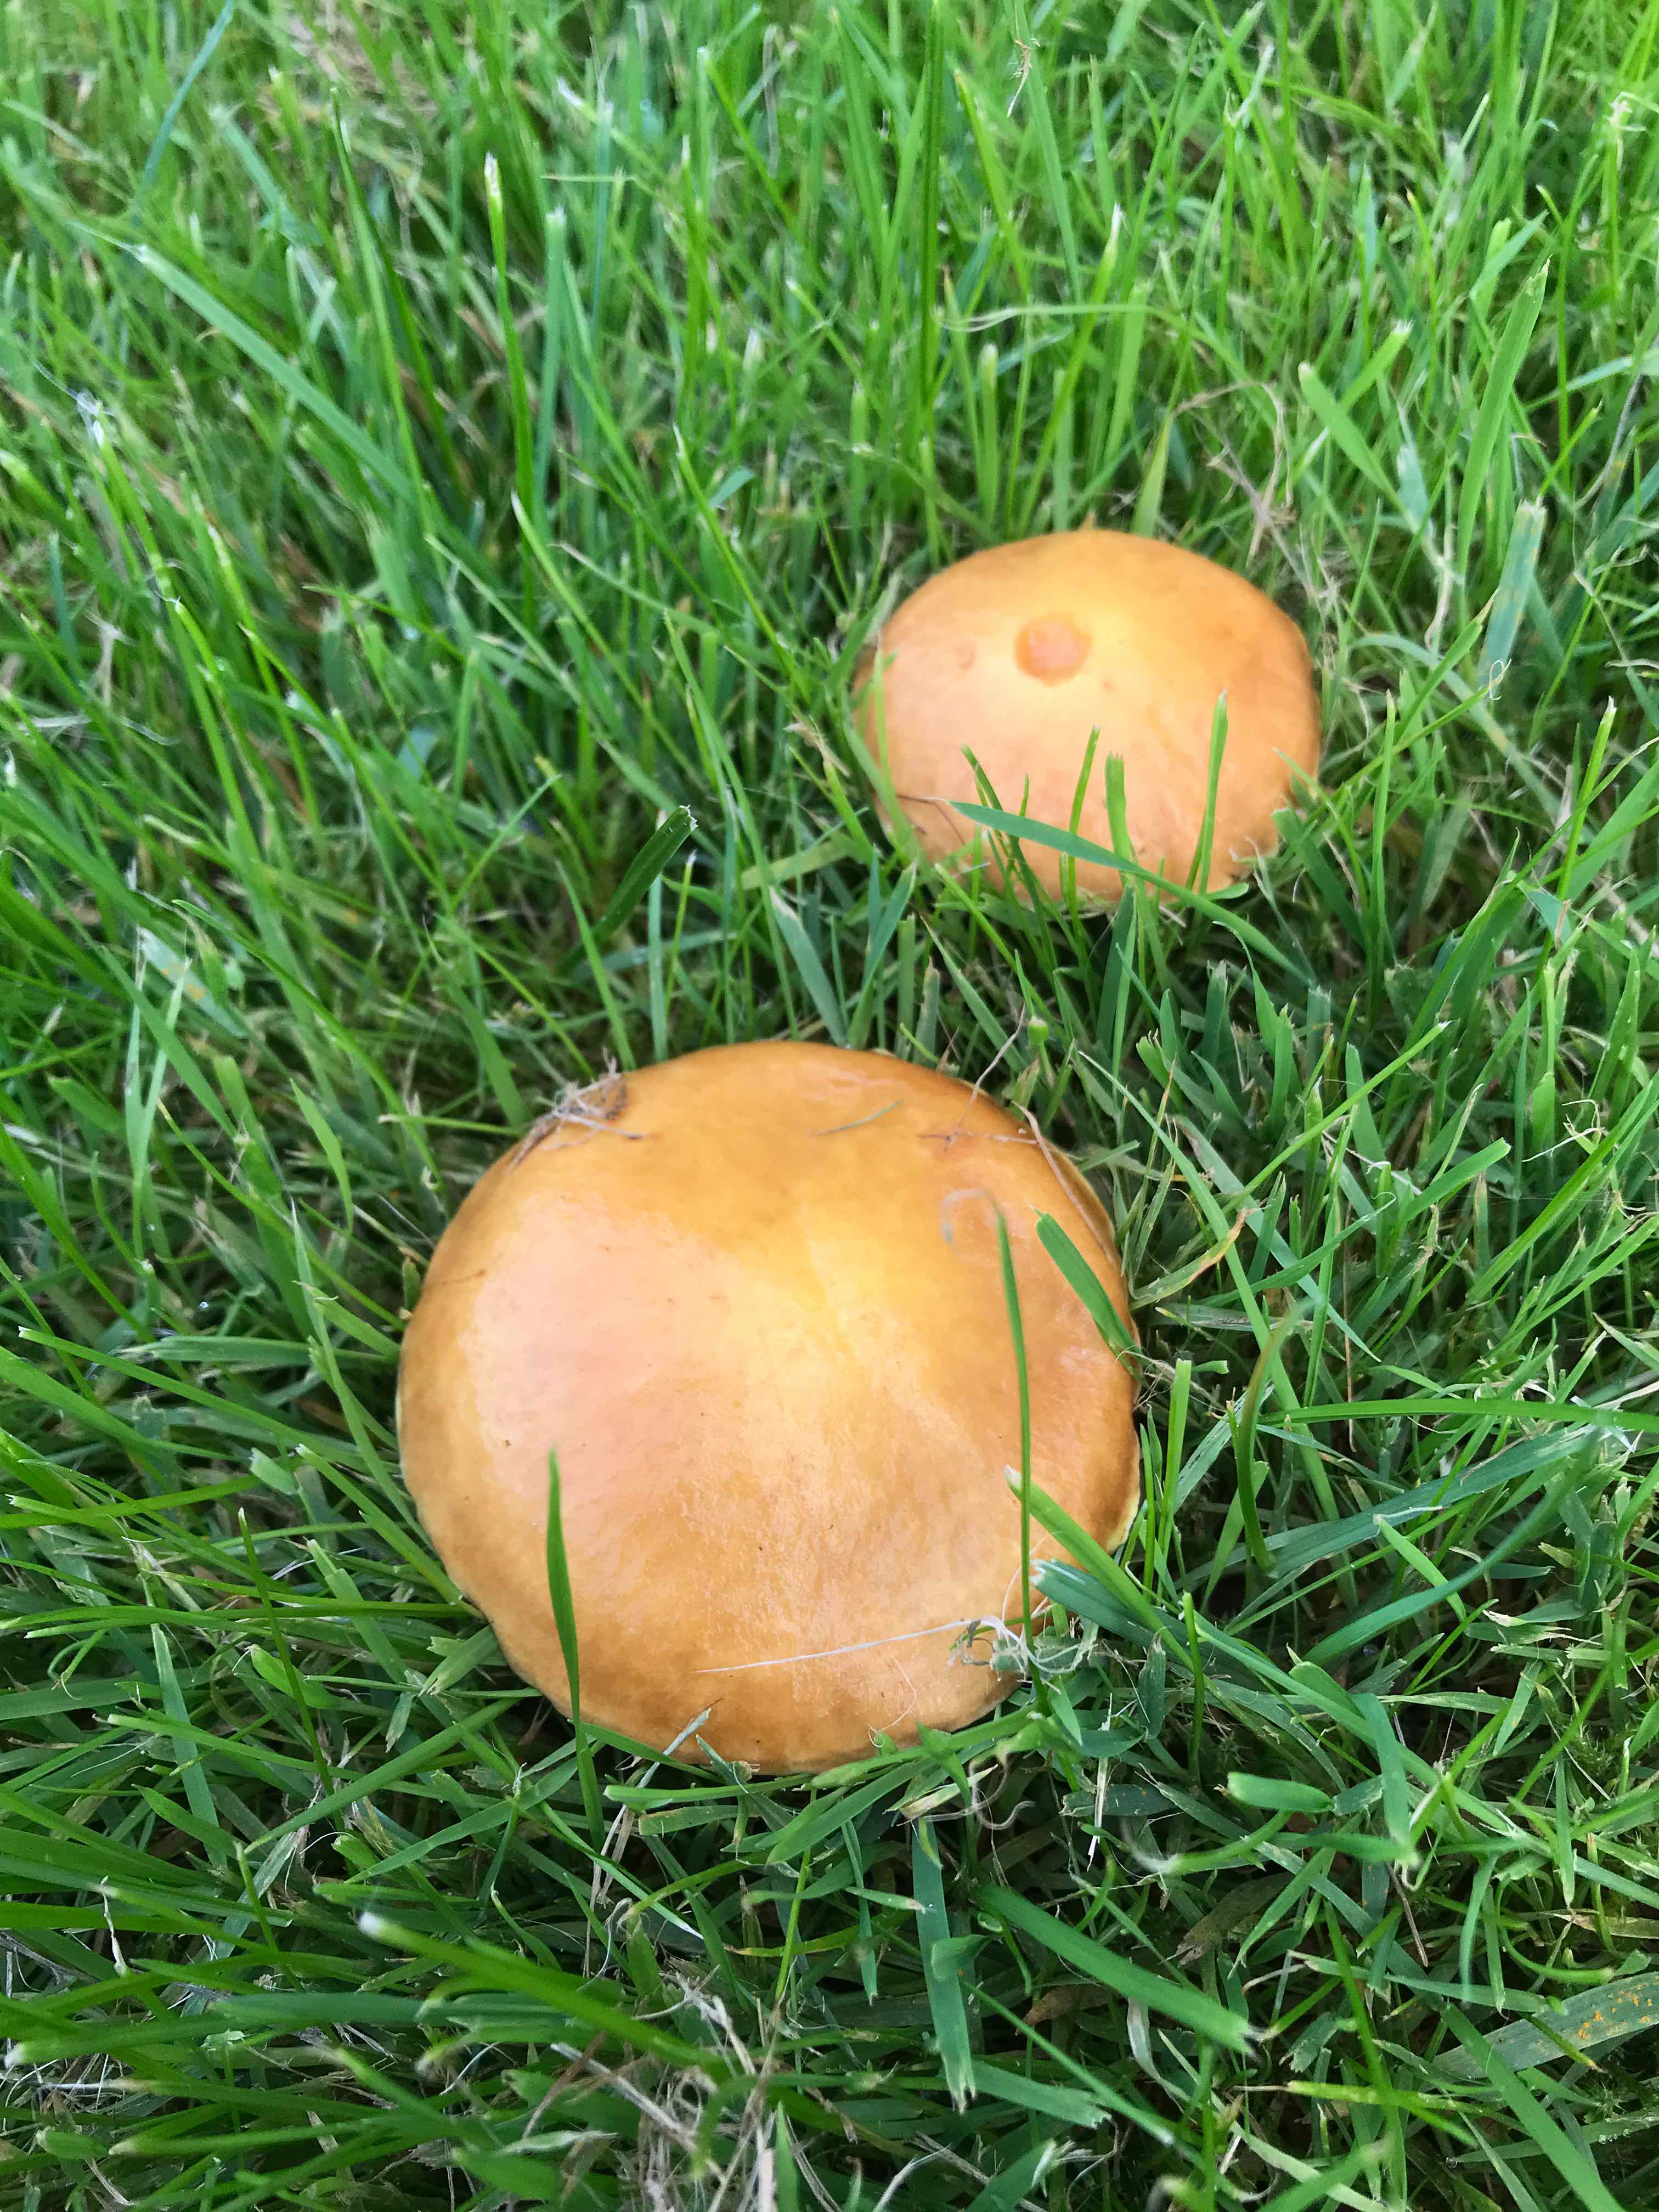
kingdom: Fungi
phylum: Basidiomycota
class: Agaricomycetes
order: Boletales
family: Suillaceae
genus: Suillus
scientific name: Suillus grevillei
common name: lærke-slimrørhat
